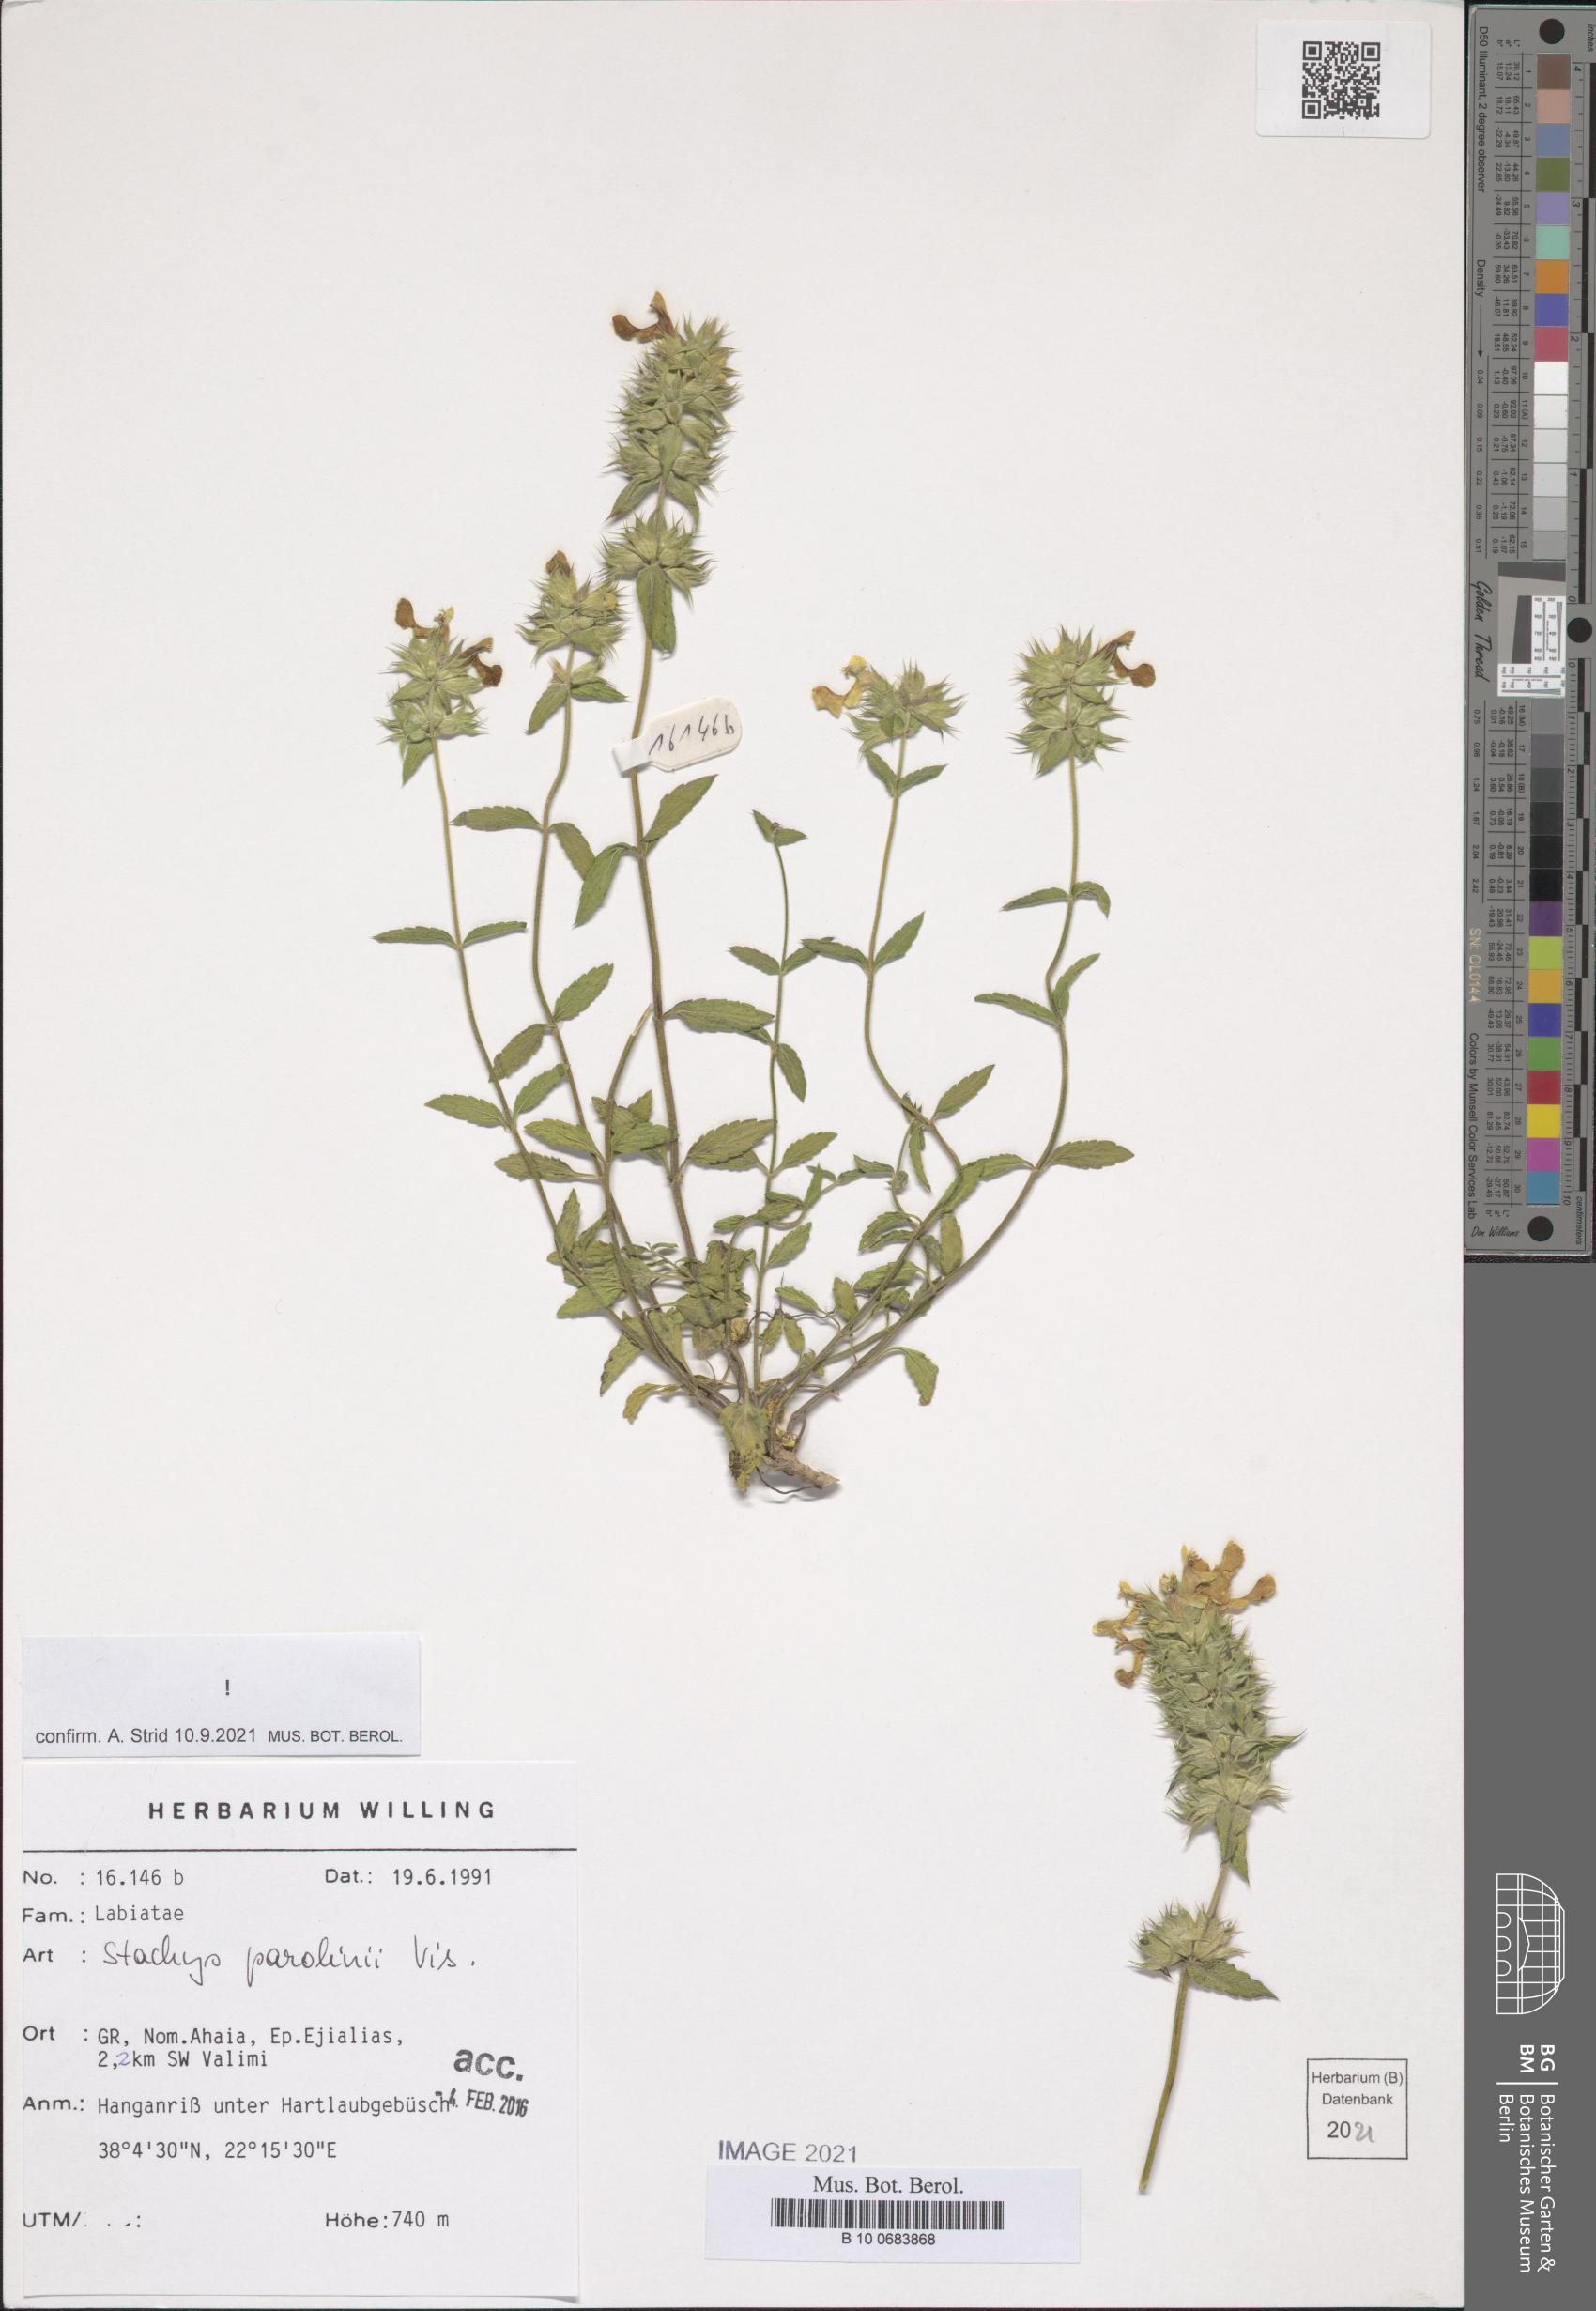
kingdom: Plantae
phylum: Tracheophyta
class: Magnoliopsida
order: Lamiales
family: Lamiaceae
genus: Stachys
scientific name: Stachys parolinii
